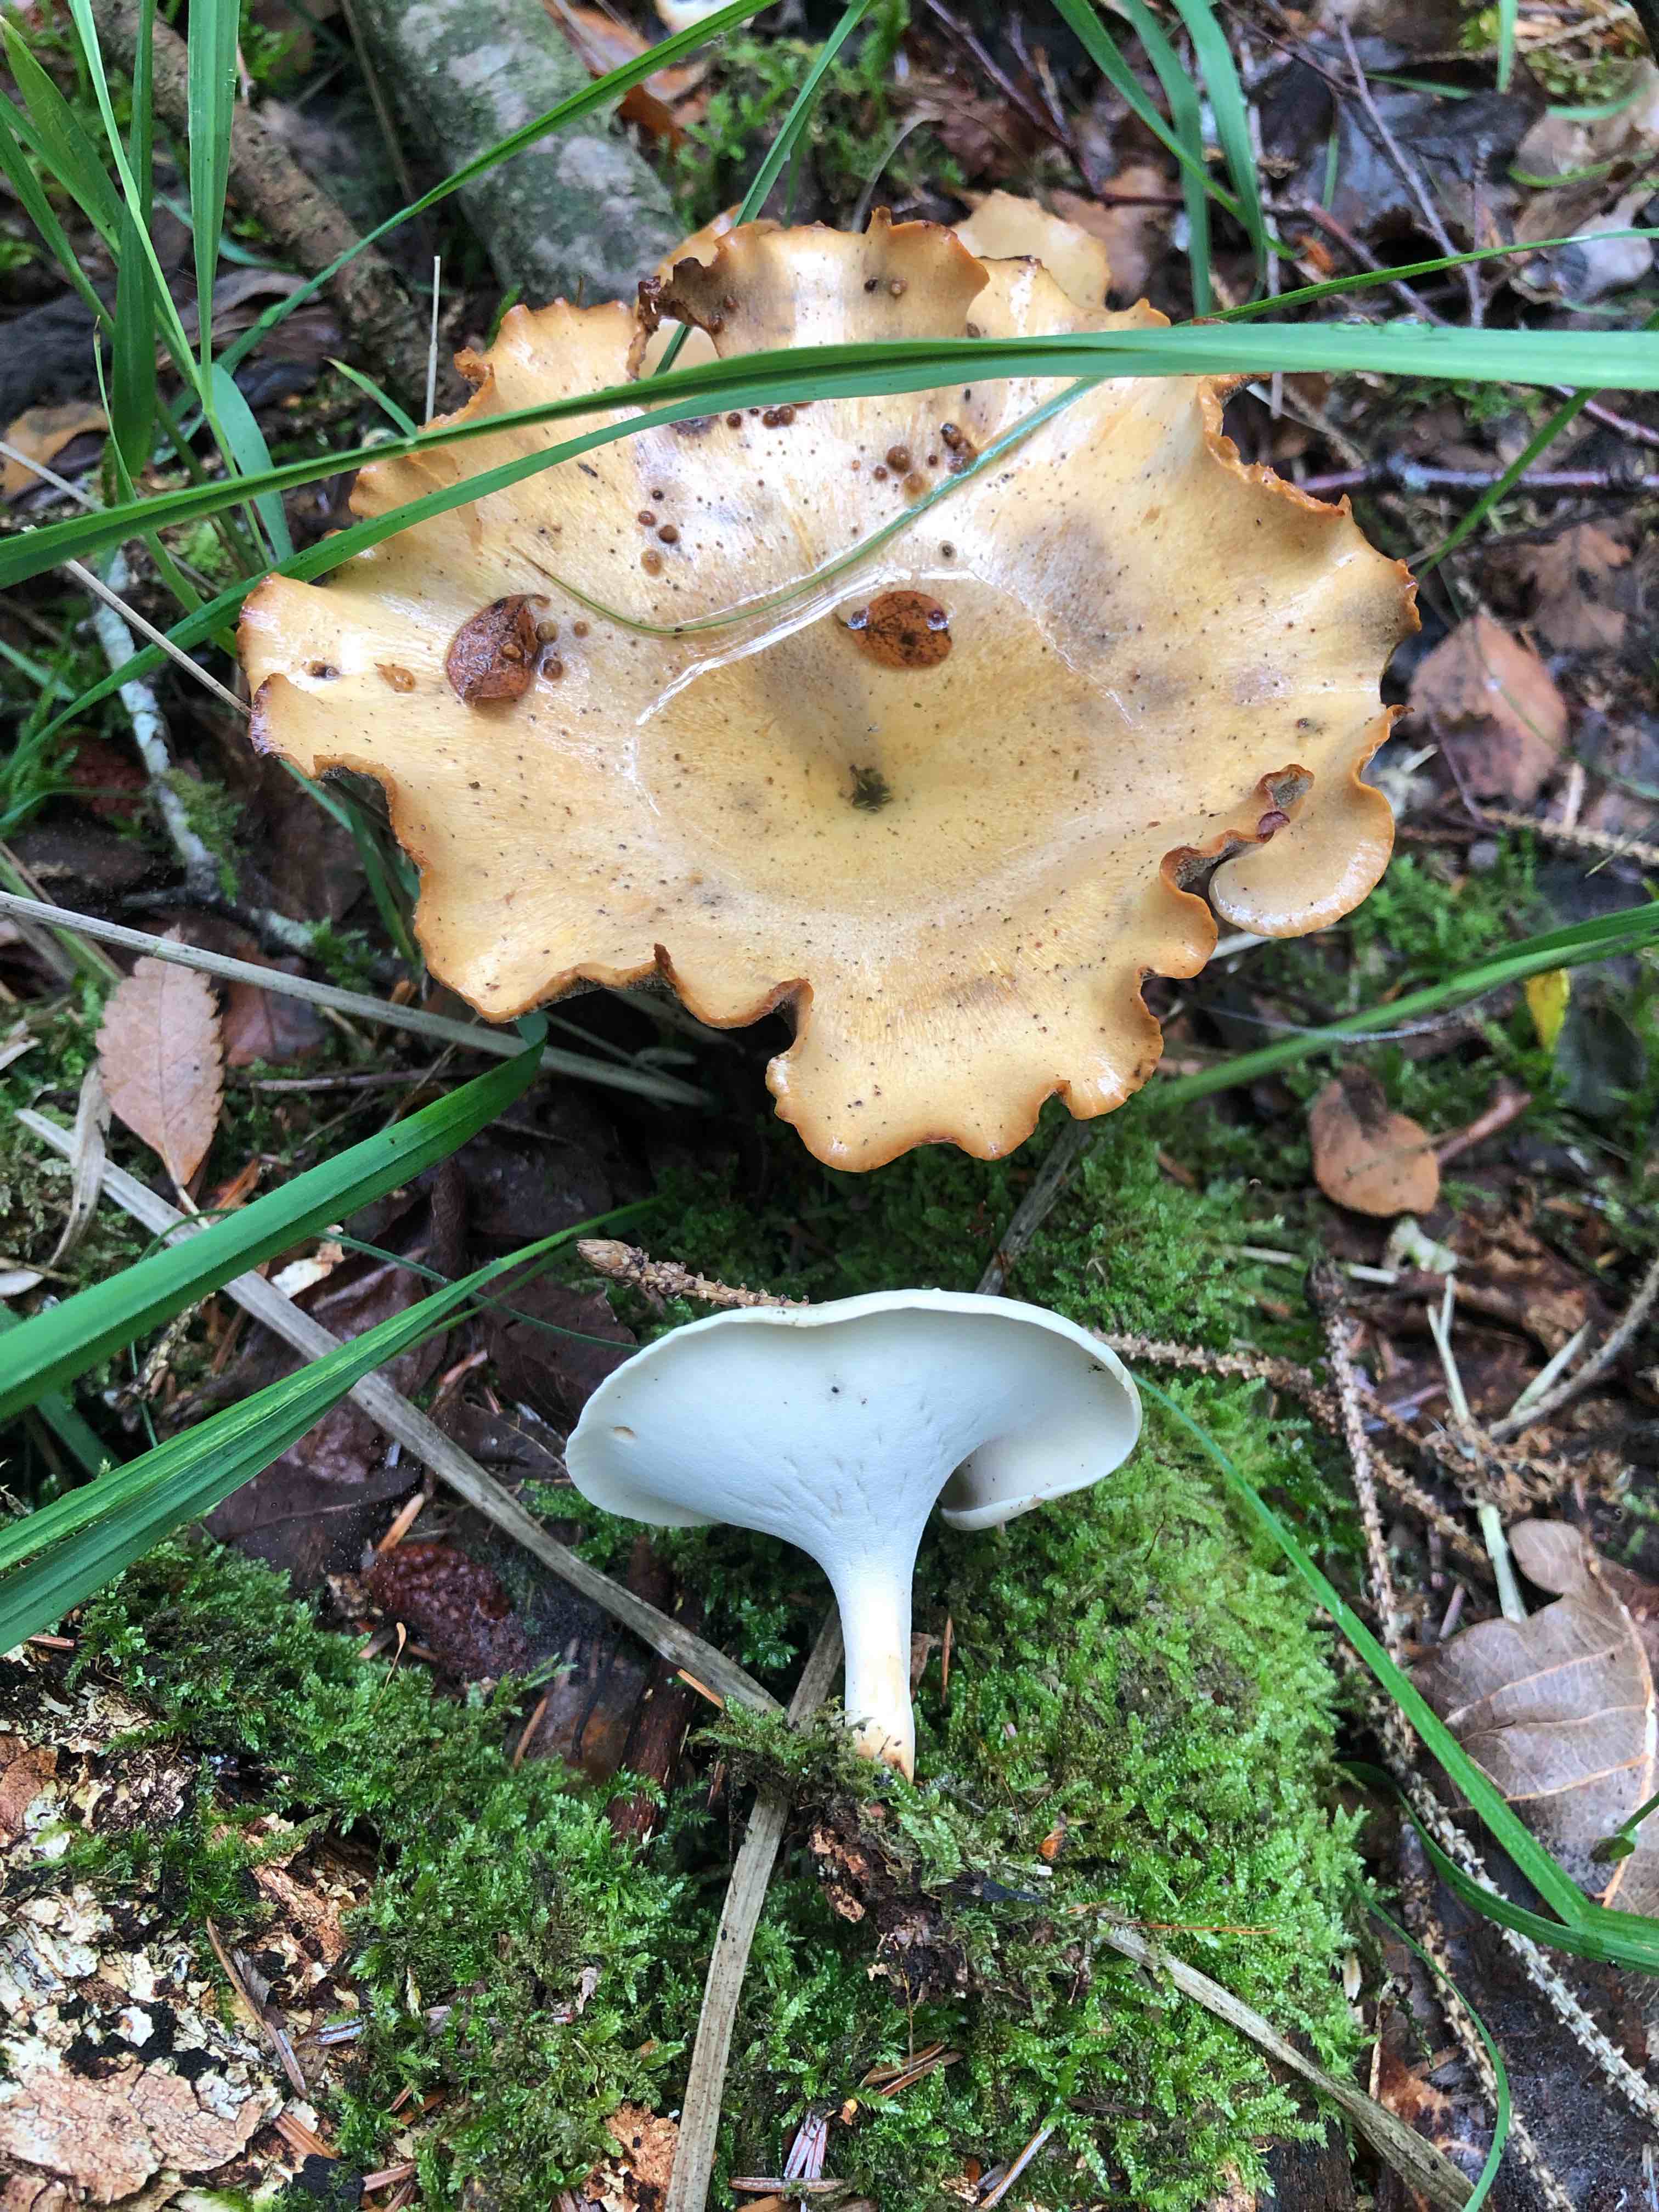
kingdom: Fungi
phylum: Basidiomycota
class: Agaricomycetes
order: Polyporales
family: Polyporaceae
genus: Cerioporus
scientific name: Cerioporus varius
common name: foranderlig stilkporesvamp
